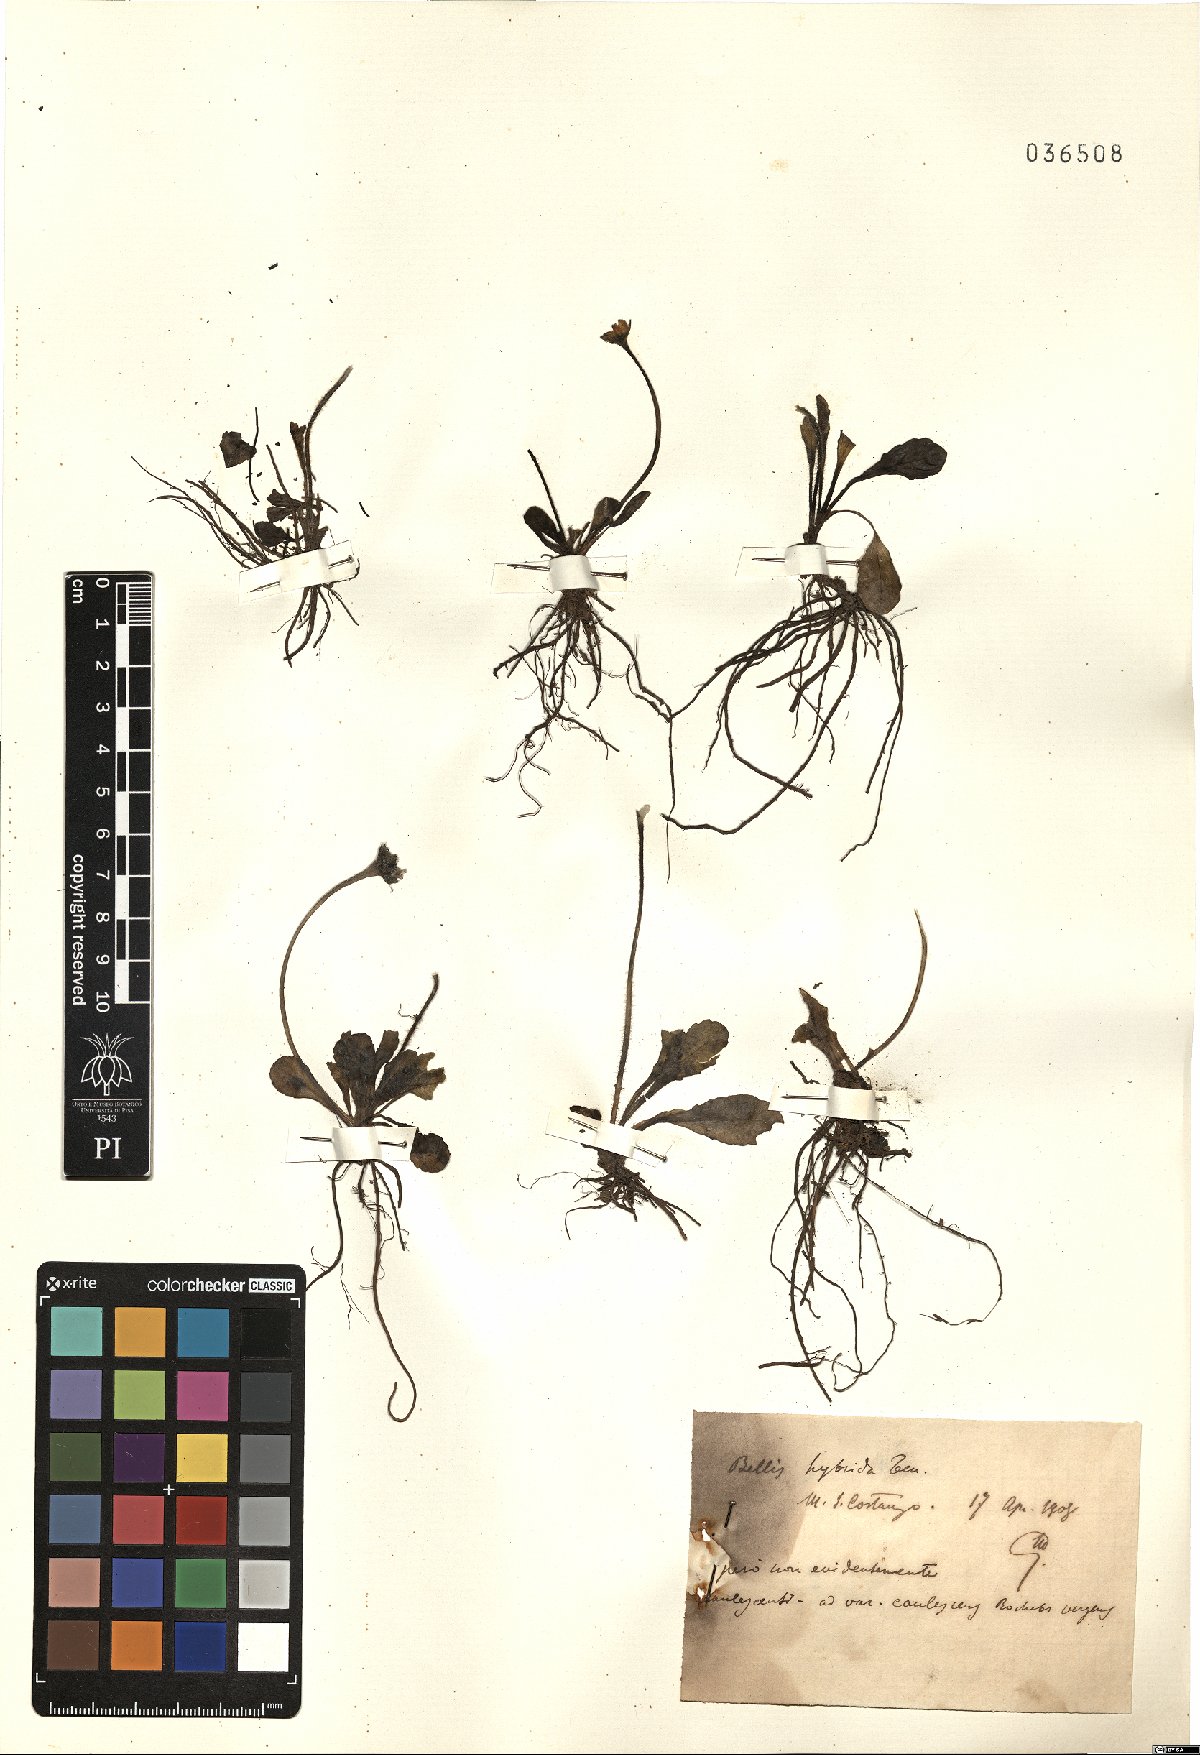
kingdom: Plantae
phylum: Tracheophyta
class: Magnoliopsida
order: Asterales
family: Asteraceae
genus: Bellis
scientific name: Bellis perennis
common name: Lawndaisy
